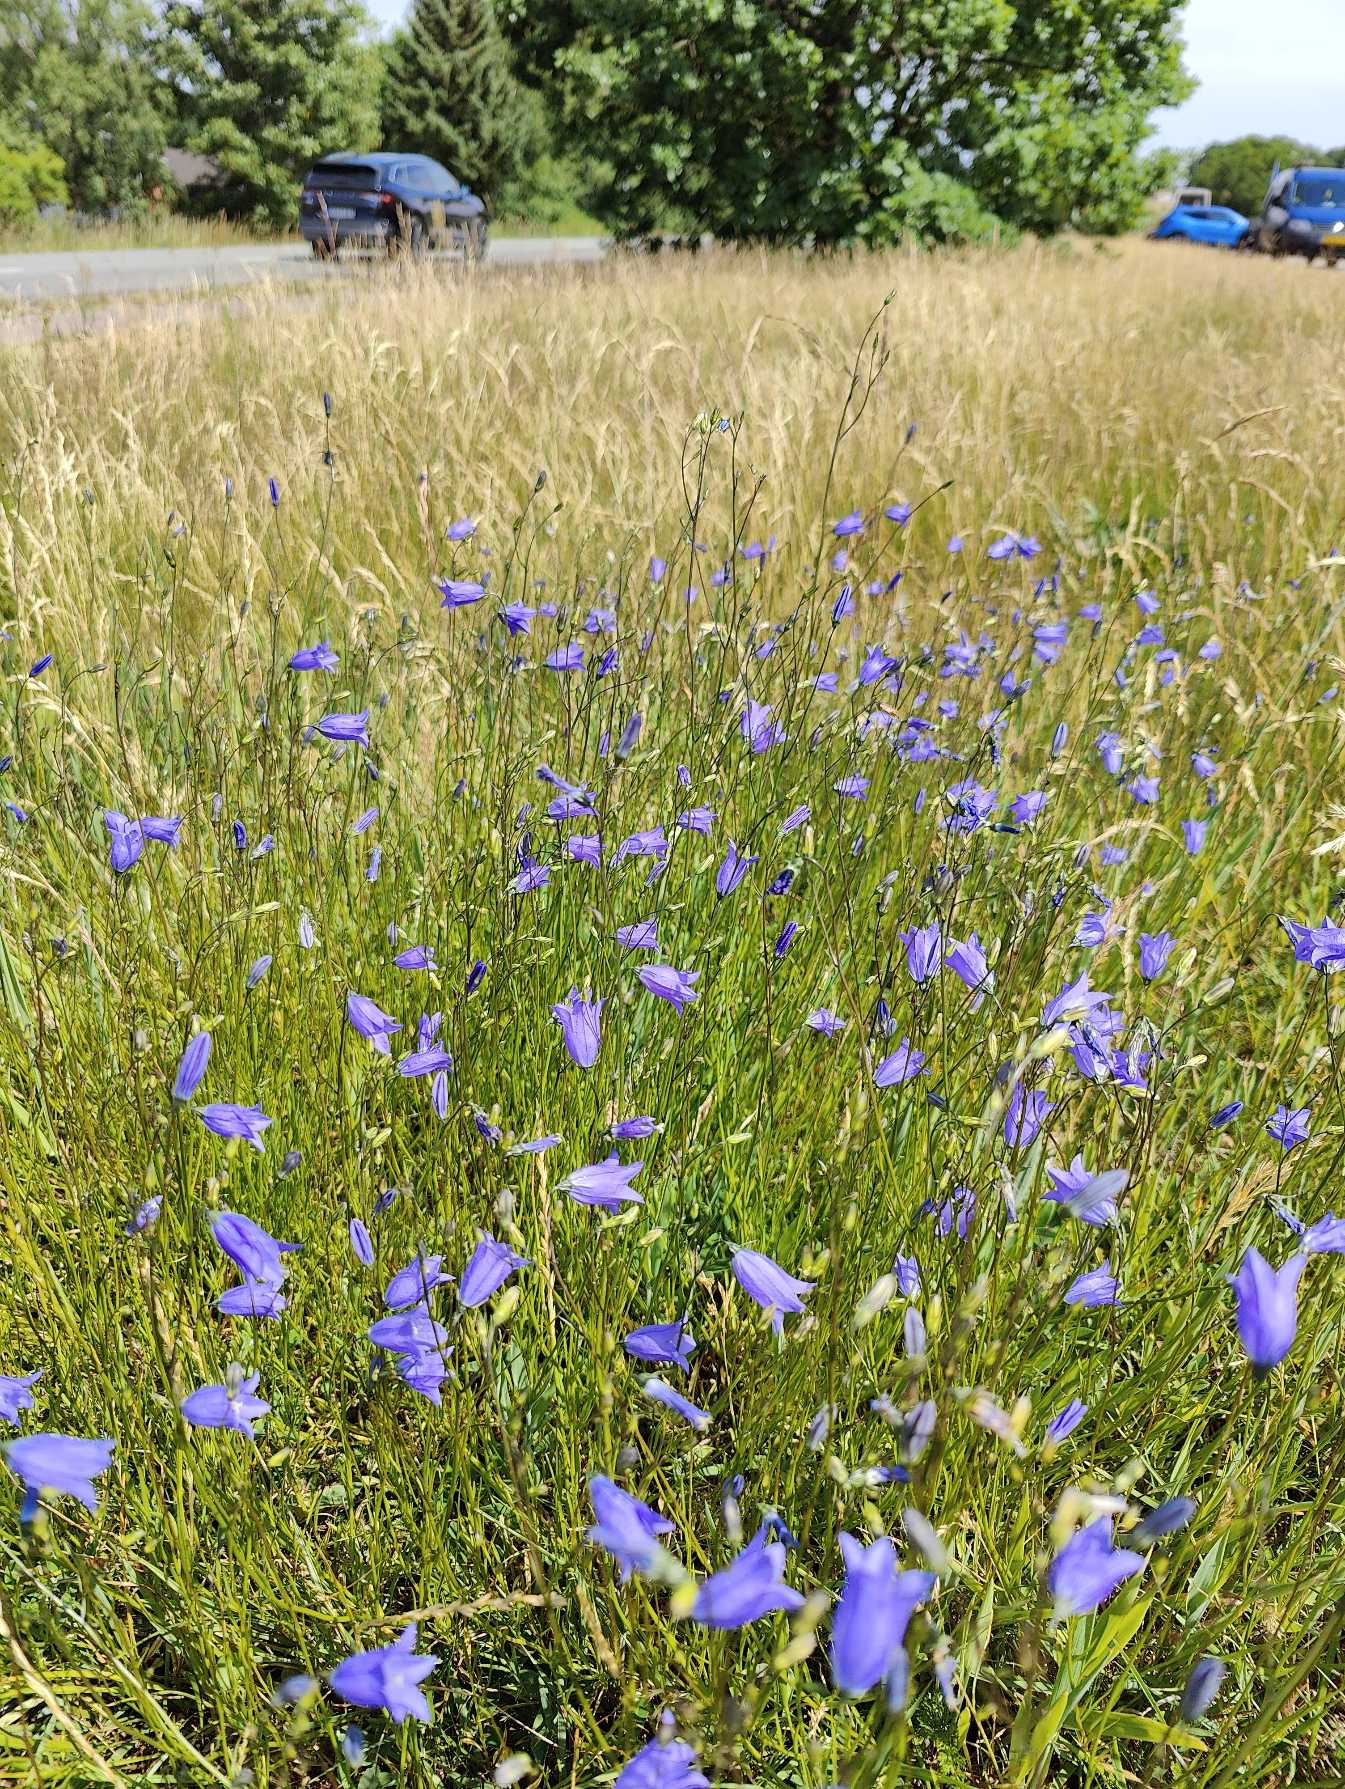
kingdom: Plantae
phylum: Tracheophyta
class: Magnoliopsida
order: Asterales
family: Campanulaceae
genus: Campanula
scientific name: Campanula rotundifolia
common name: Liden klokke
